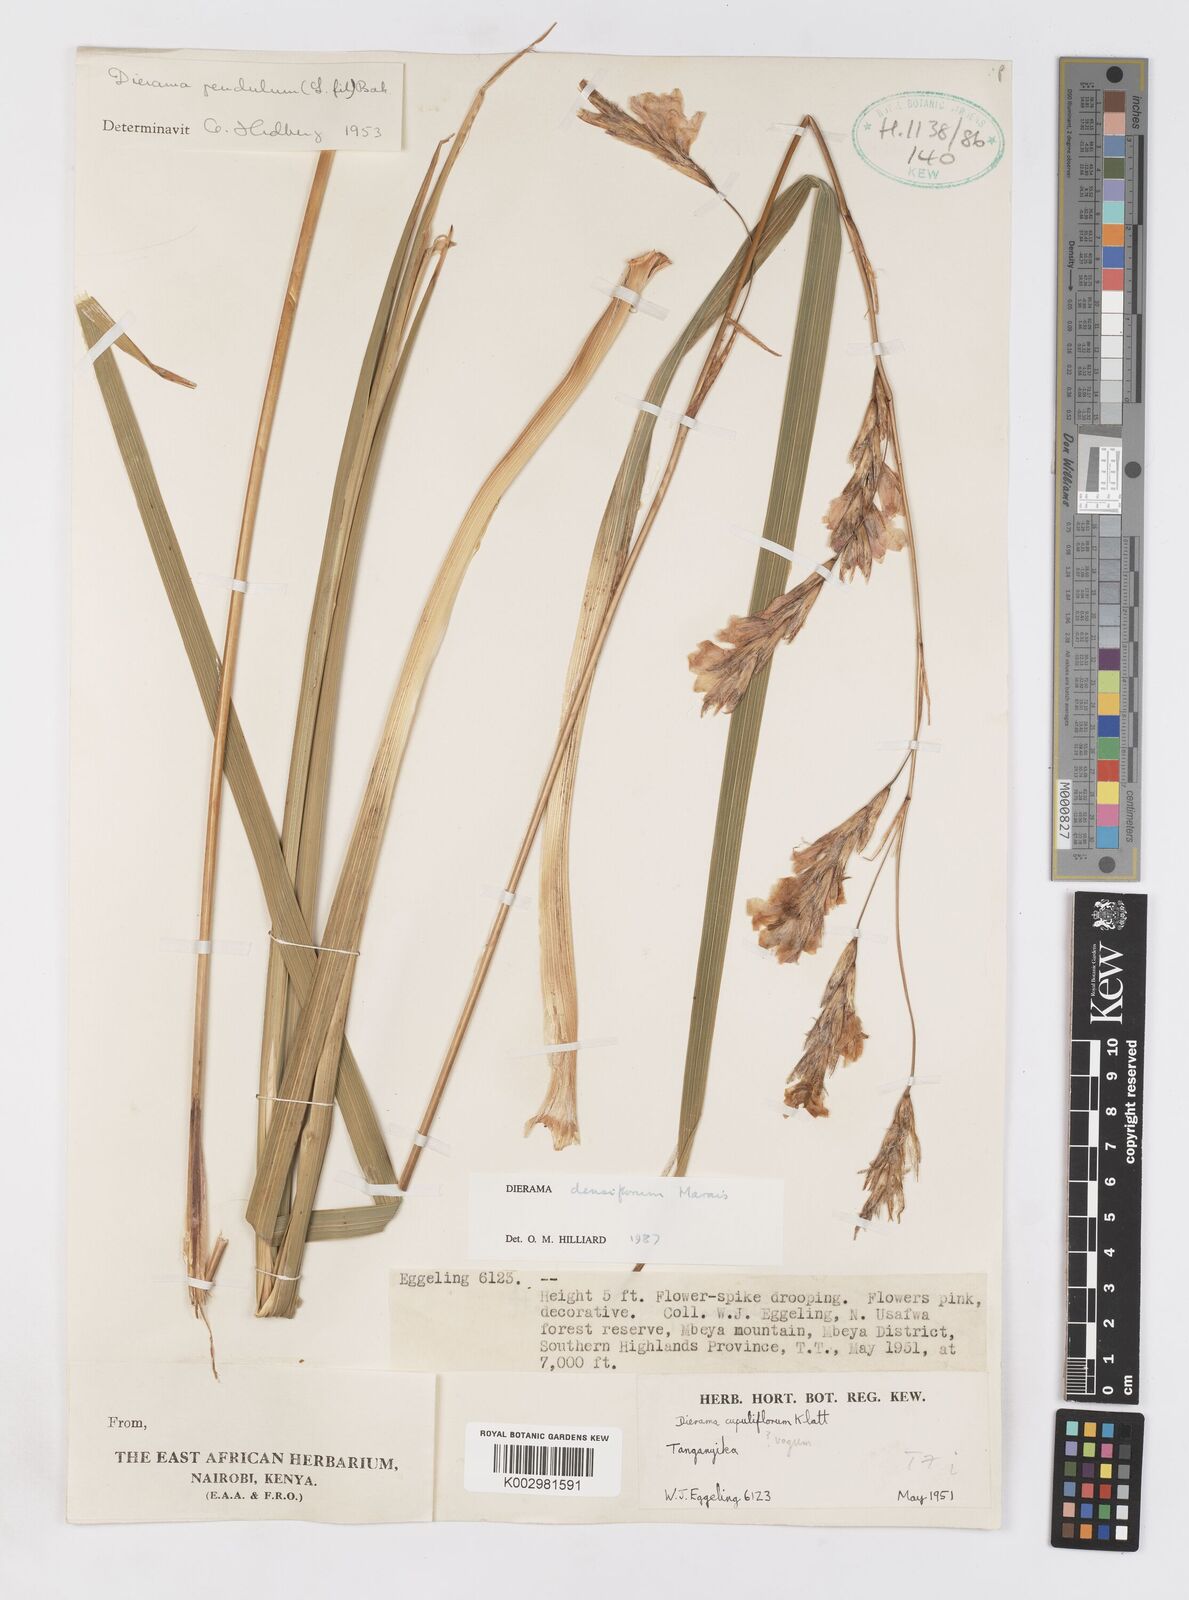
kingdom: Plantae
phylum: Tracheophyta
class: Liliopsida
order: Asparagales
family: Iridaceae
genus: Dierama
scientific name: Dierama densiflorum
